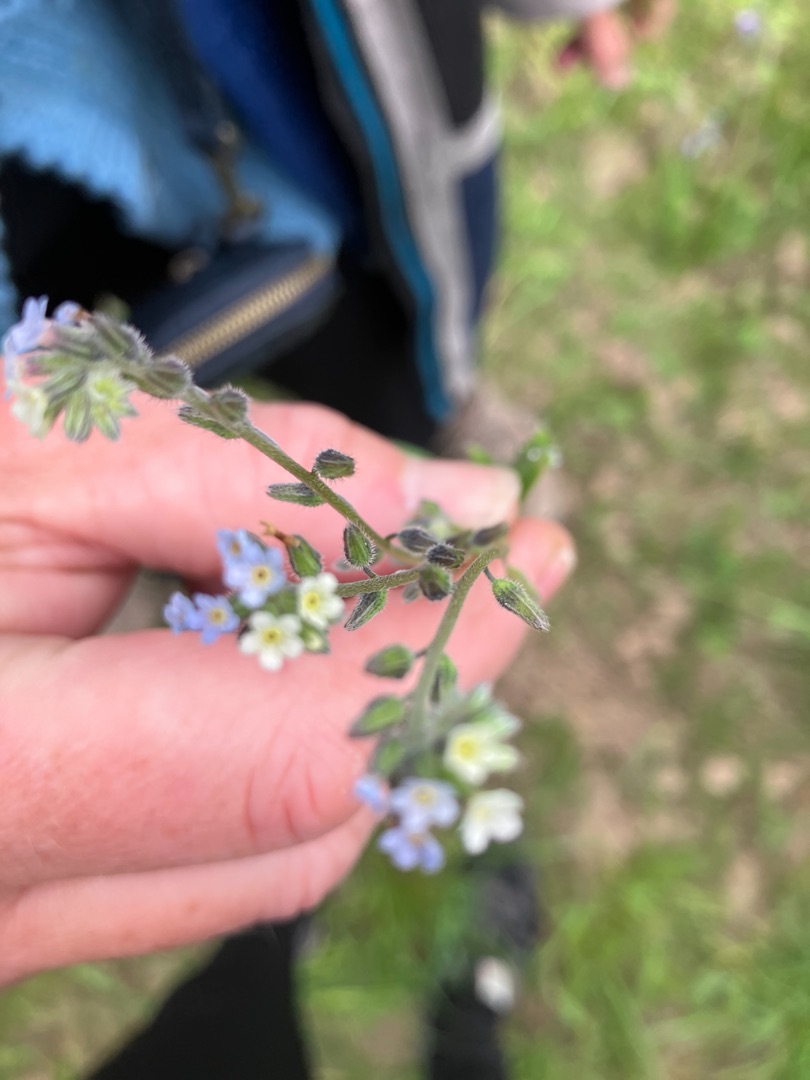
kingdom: Plantae
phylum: Tracheophyta
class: Magnoliopsida
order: Boraginales
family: Boraginaceae
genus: Myosotis
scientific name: Myosotis discolor
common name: Forskelligfarvet forglemmigej
